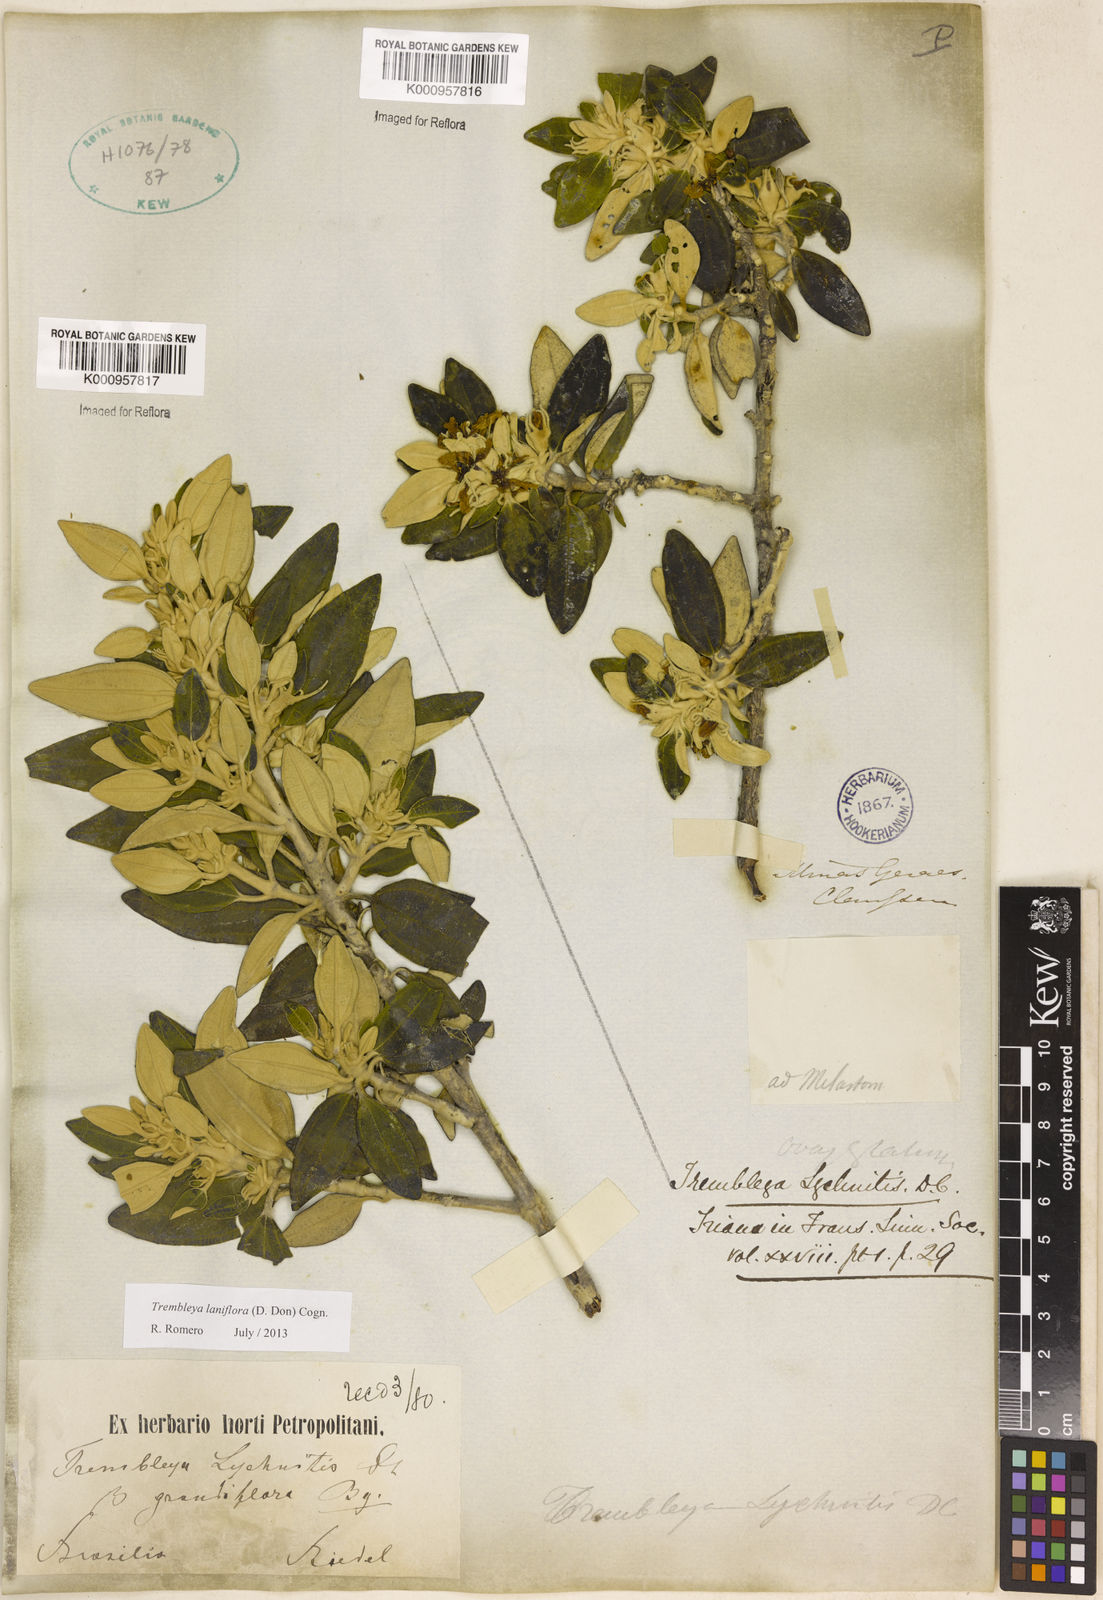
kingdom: Plantae
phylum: Tracheophyta
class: Magnoliopsida
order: Myrtales
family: Melastomataceae
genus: Microlicia
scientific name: Microlicia laniflora
